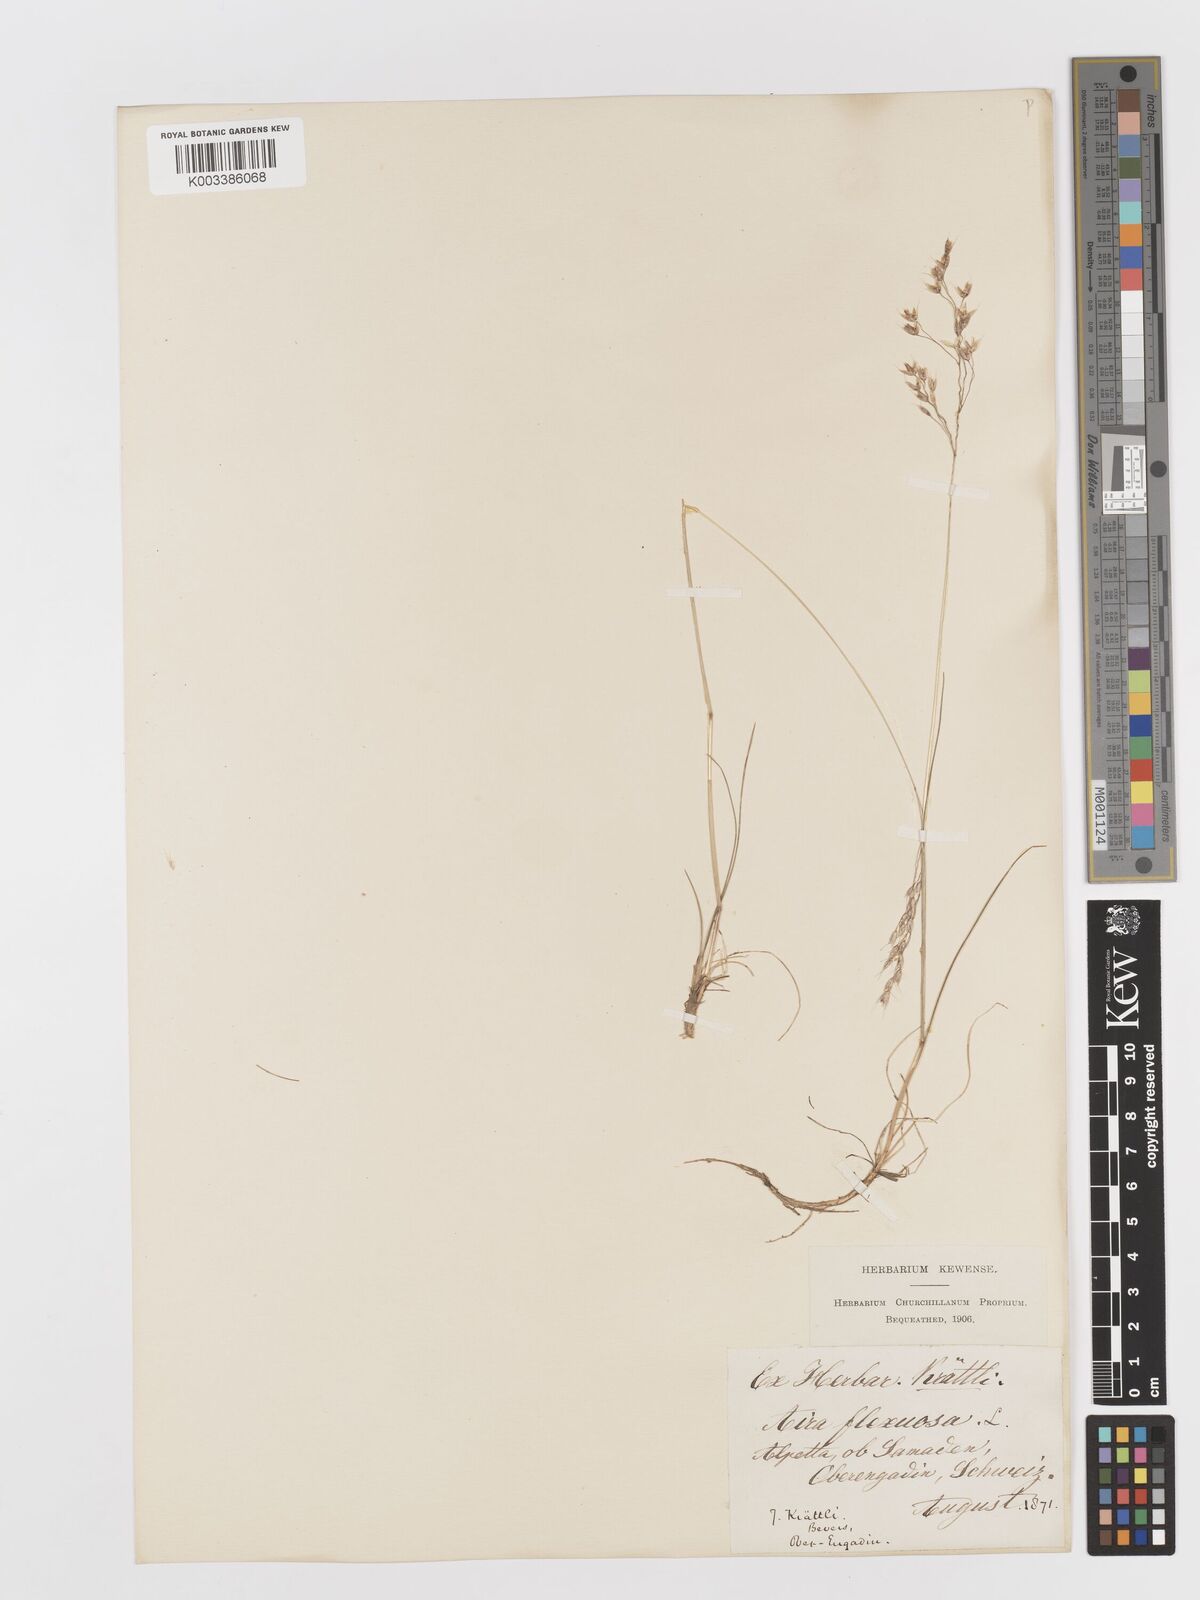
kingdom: Plantae
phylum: Tracheophyta
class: Liliopsida
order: Poales
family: Poaceae
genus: Avenella
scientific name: Avenella flexuosa
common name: Wavy hairgrass
